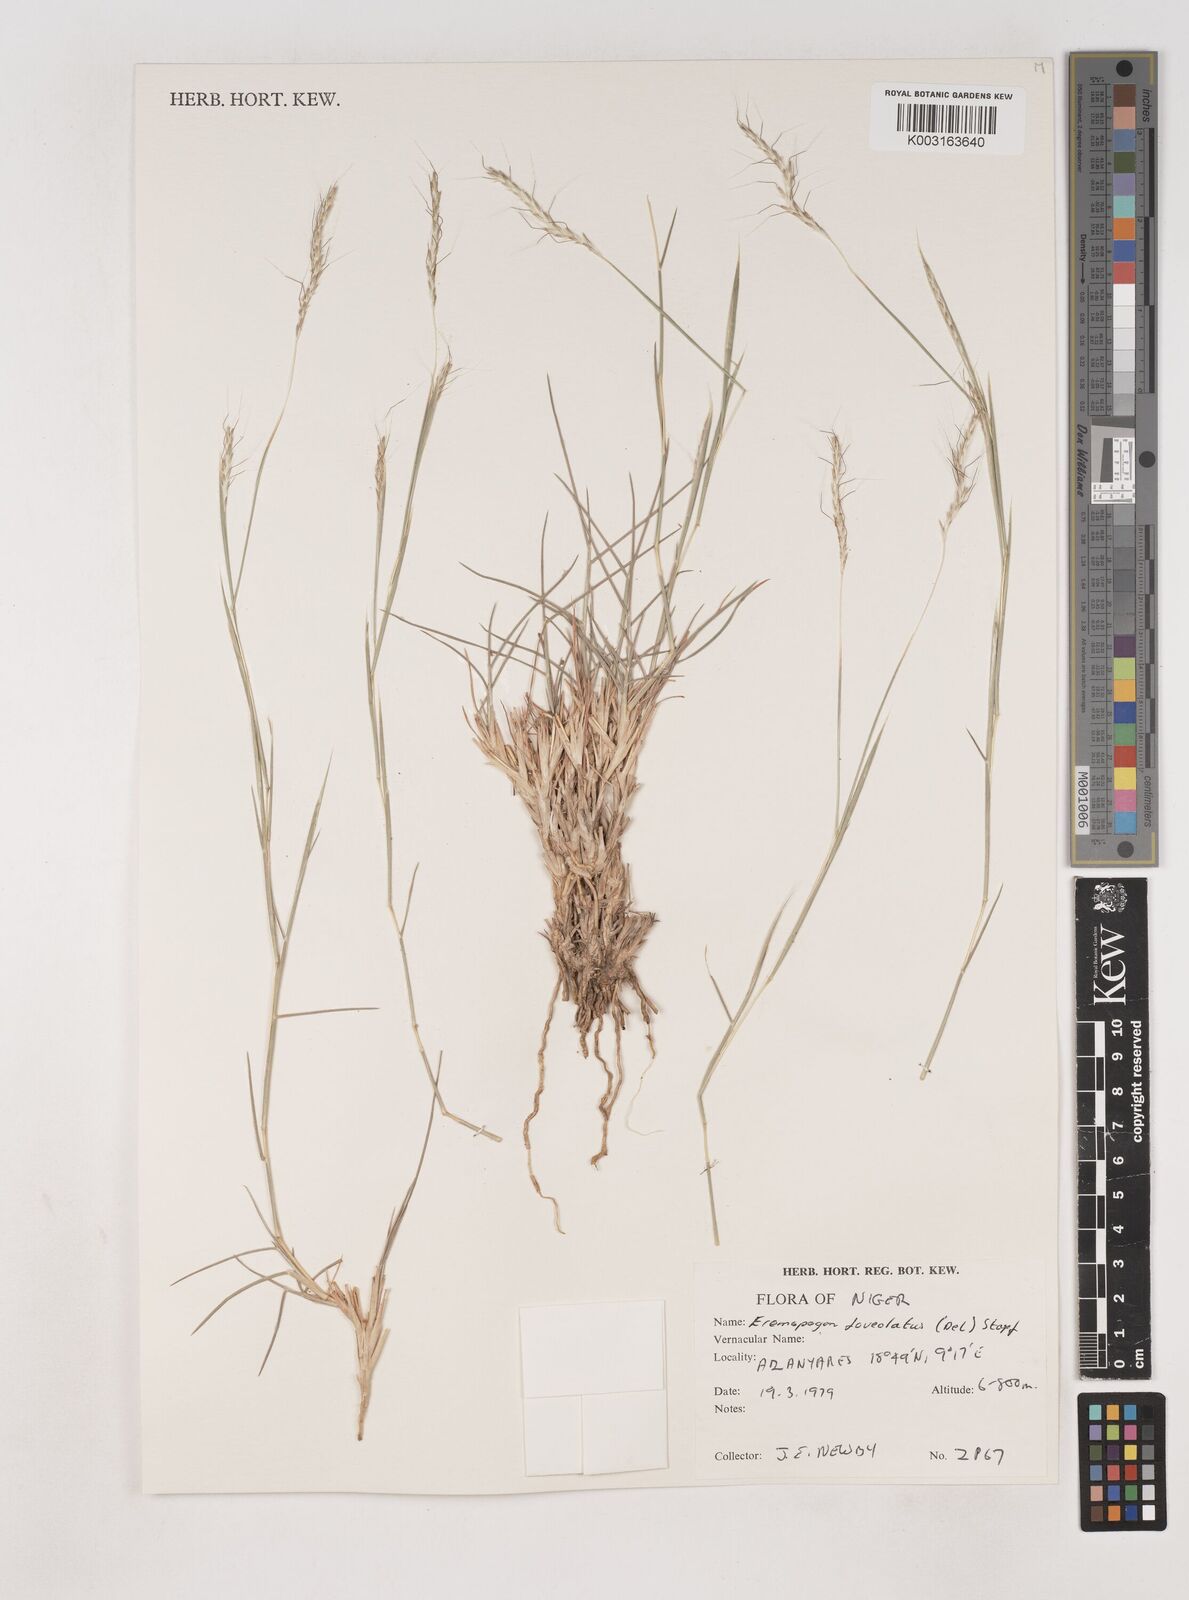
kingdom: Plantae
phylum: Tracheophyta
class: Liliopsida
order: Poales
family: Poaceae
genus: Dichanthium
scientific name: Dichanthium foveolatum
